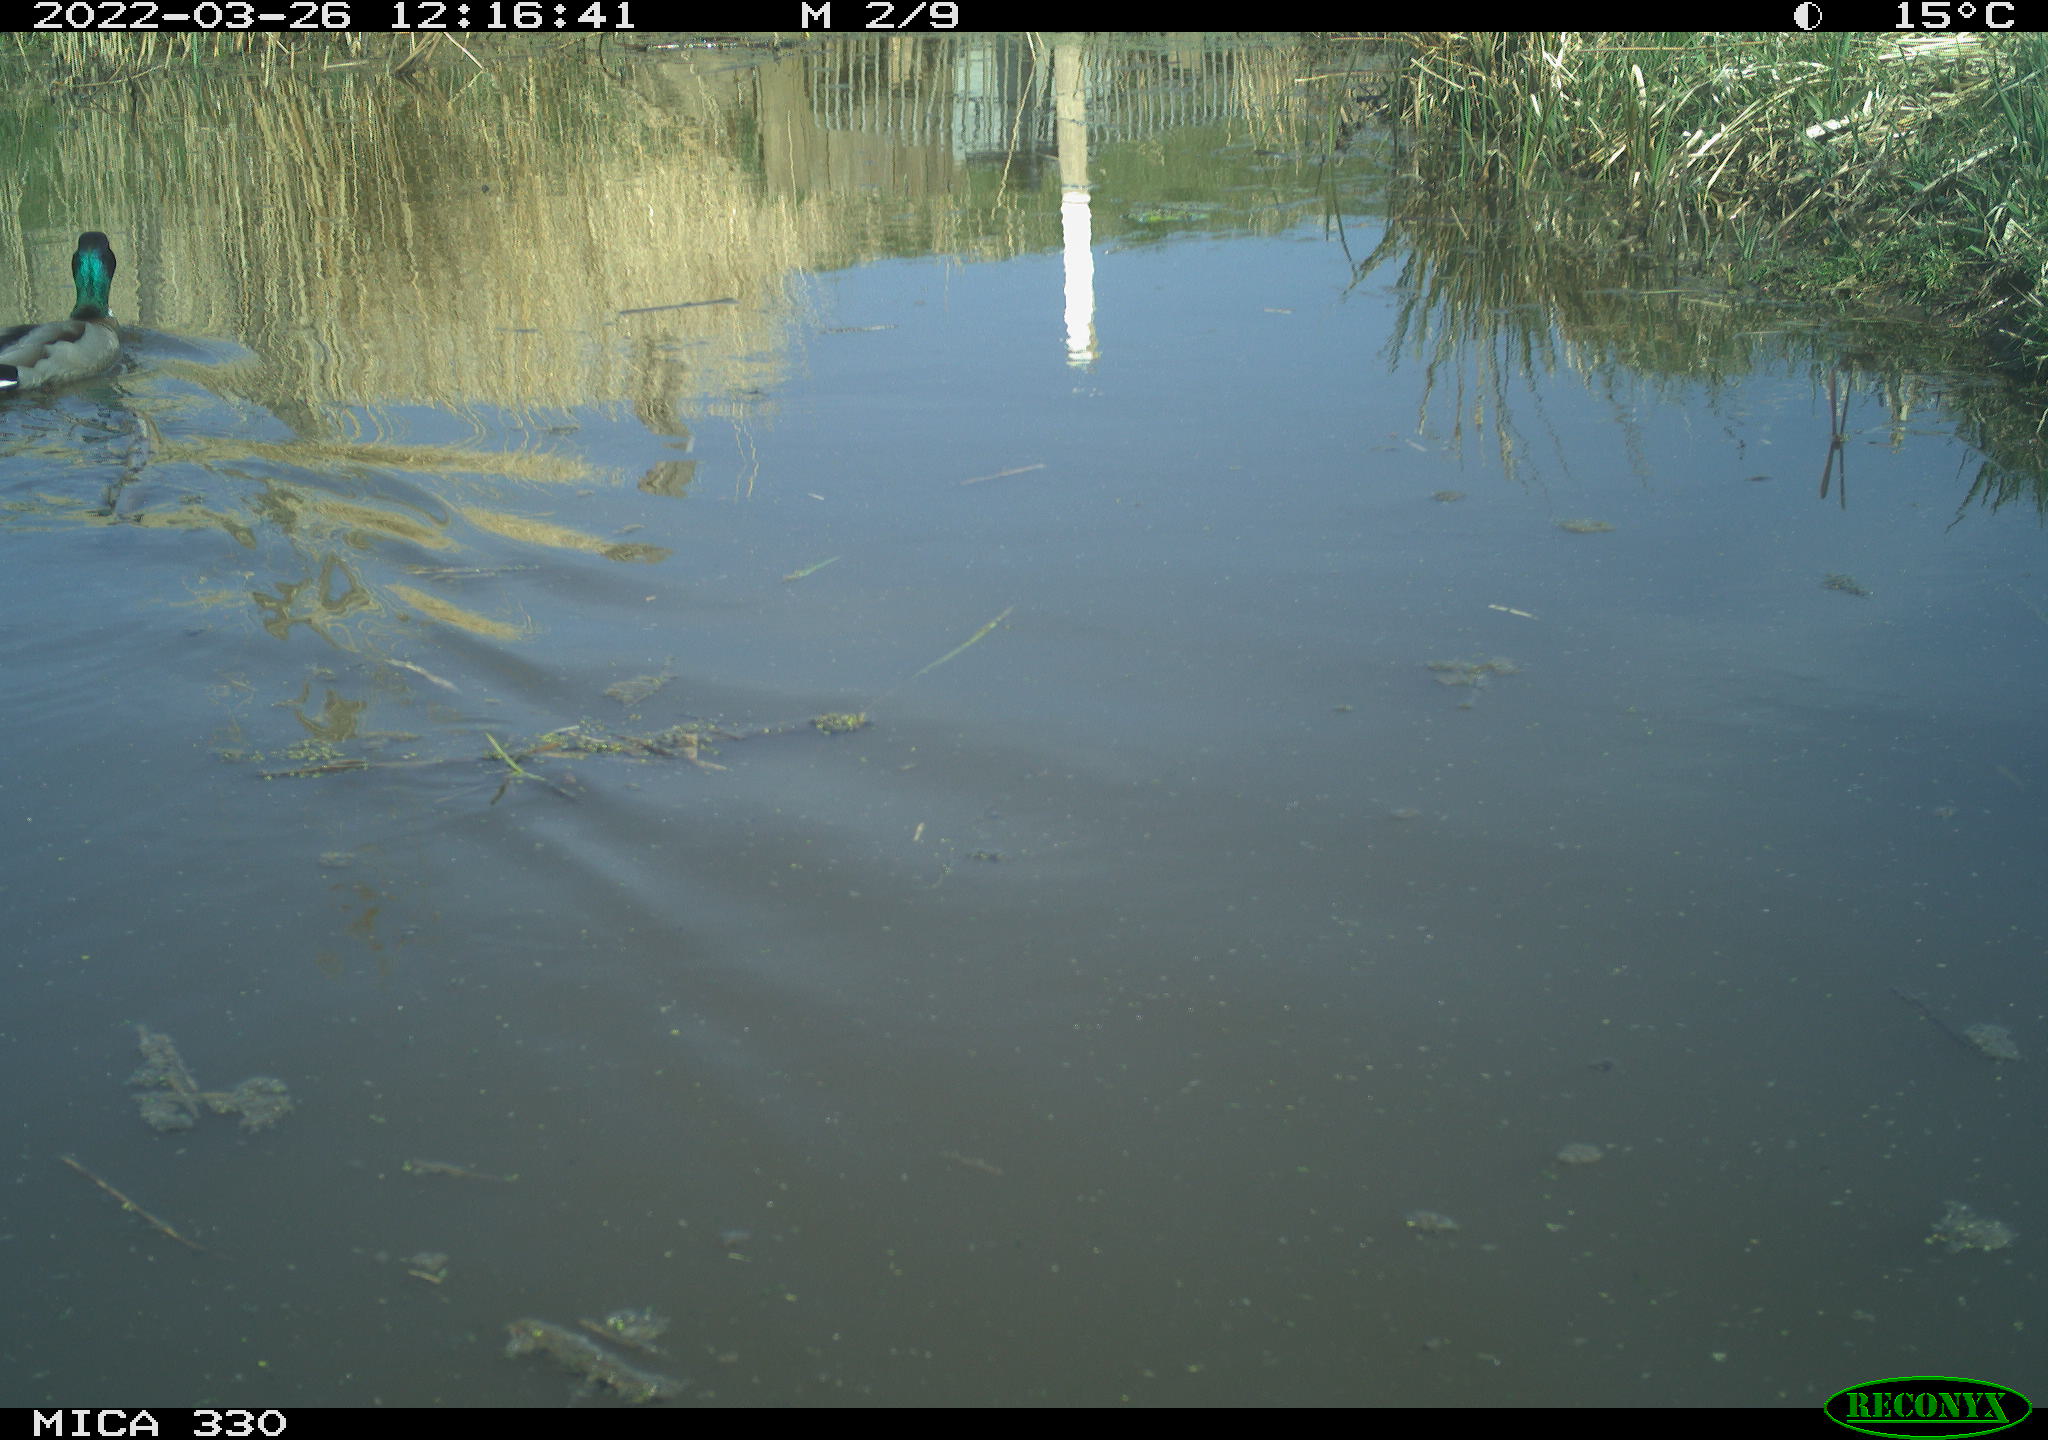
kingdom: Animalia
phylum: Chordata
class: Aves
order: Anseriformes
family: Anatidae
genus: Anas
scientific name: Anas platyrhynchos
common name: Mallard
